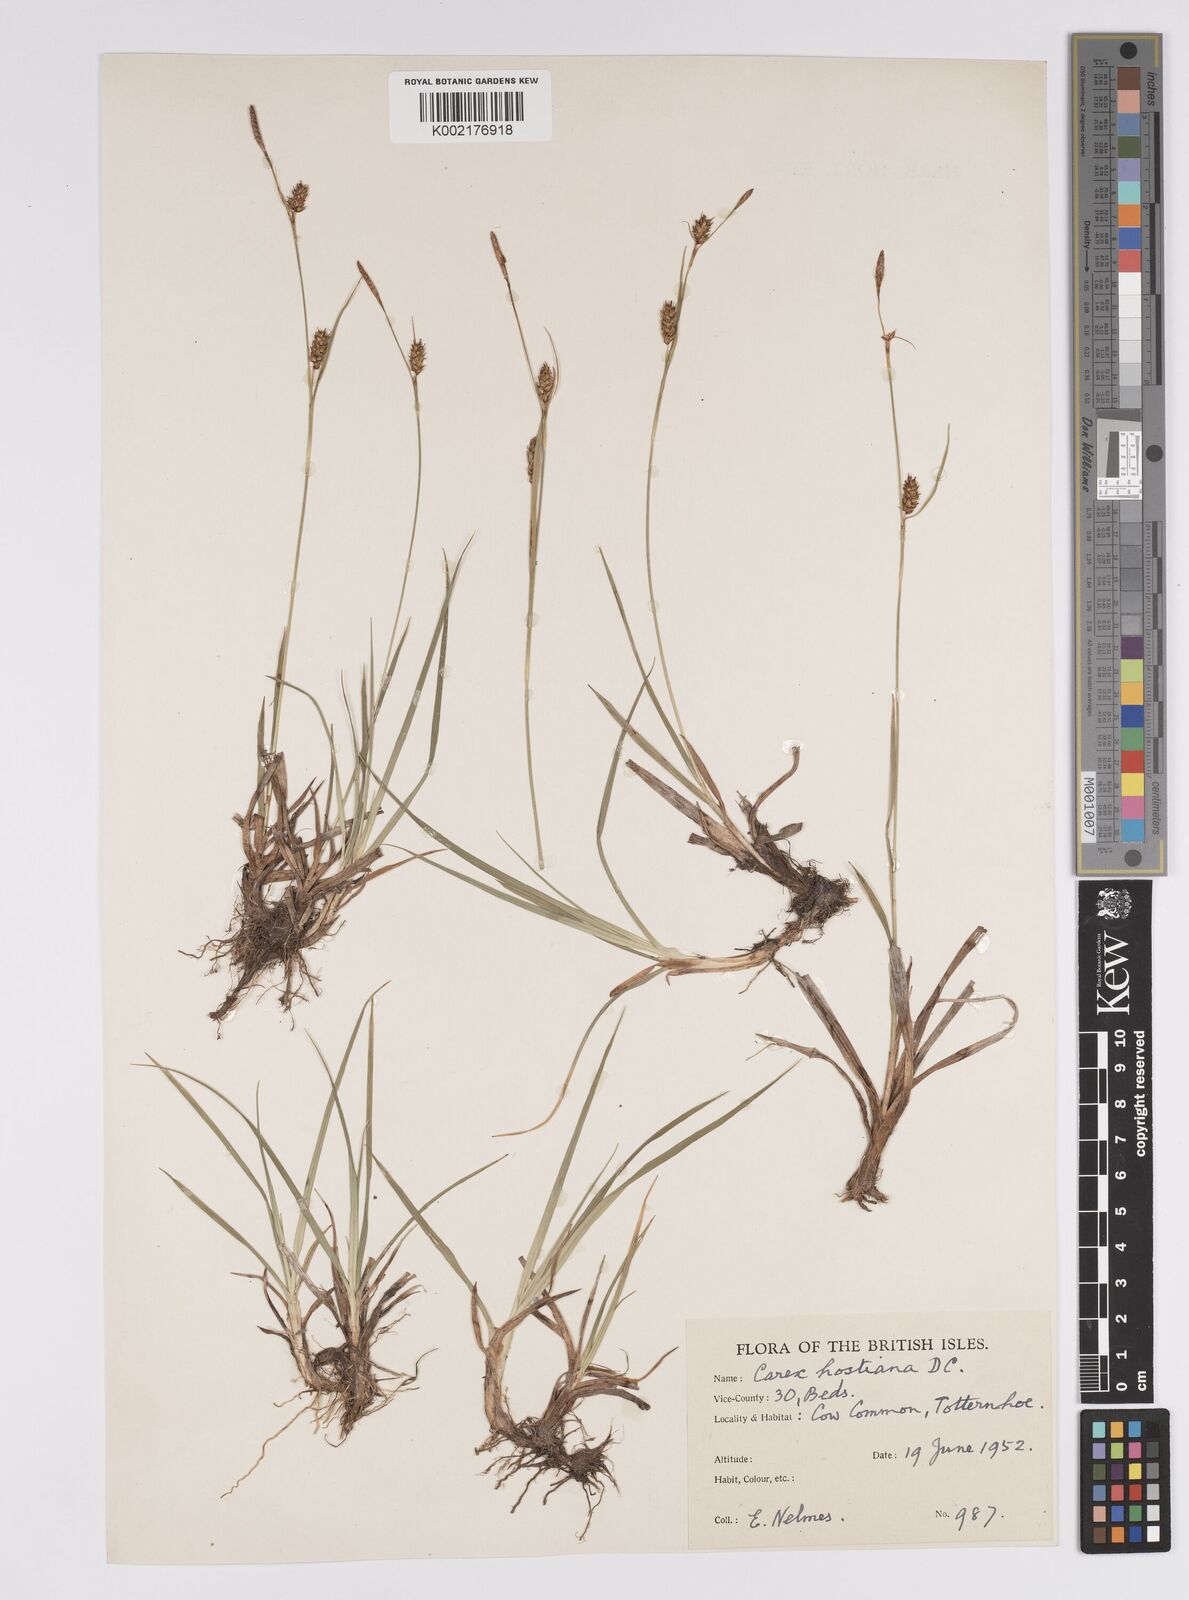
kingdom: Plantae
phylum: Tracheophyta
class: Liliopsida
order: Poales
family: Cyperaceae
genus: Carex
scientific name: Carex hostiana
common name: Tawny sedge
